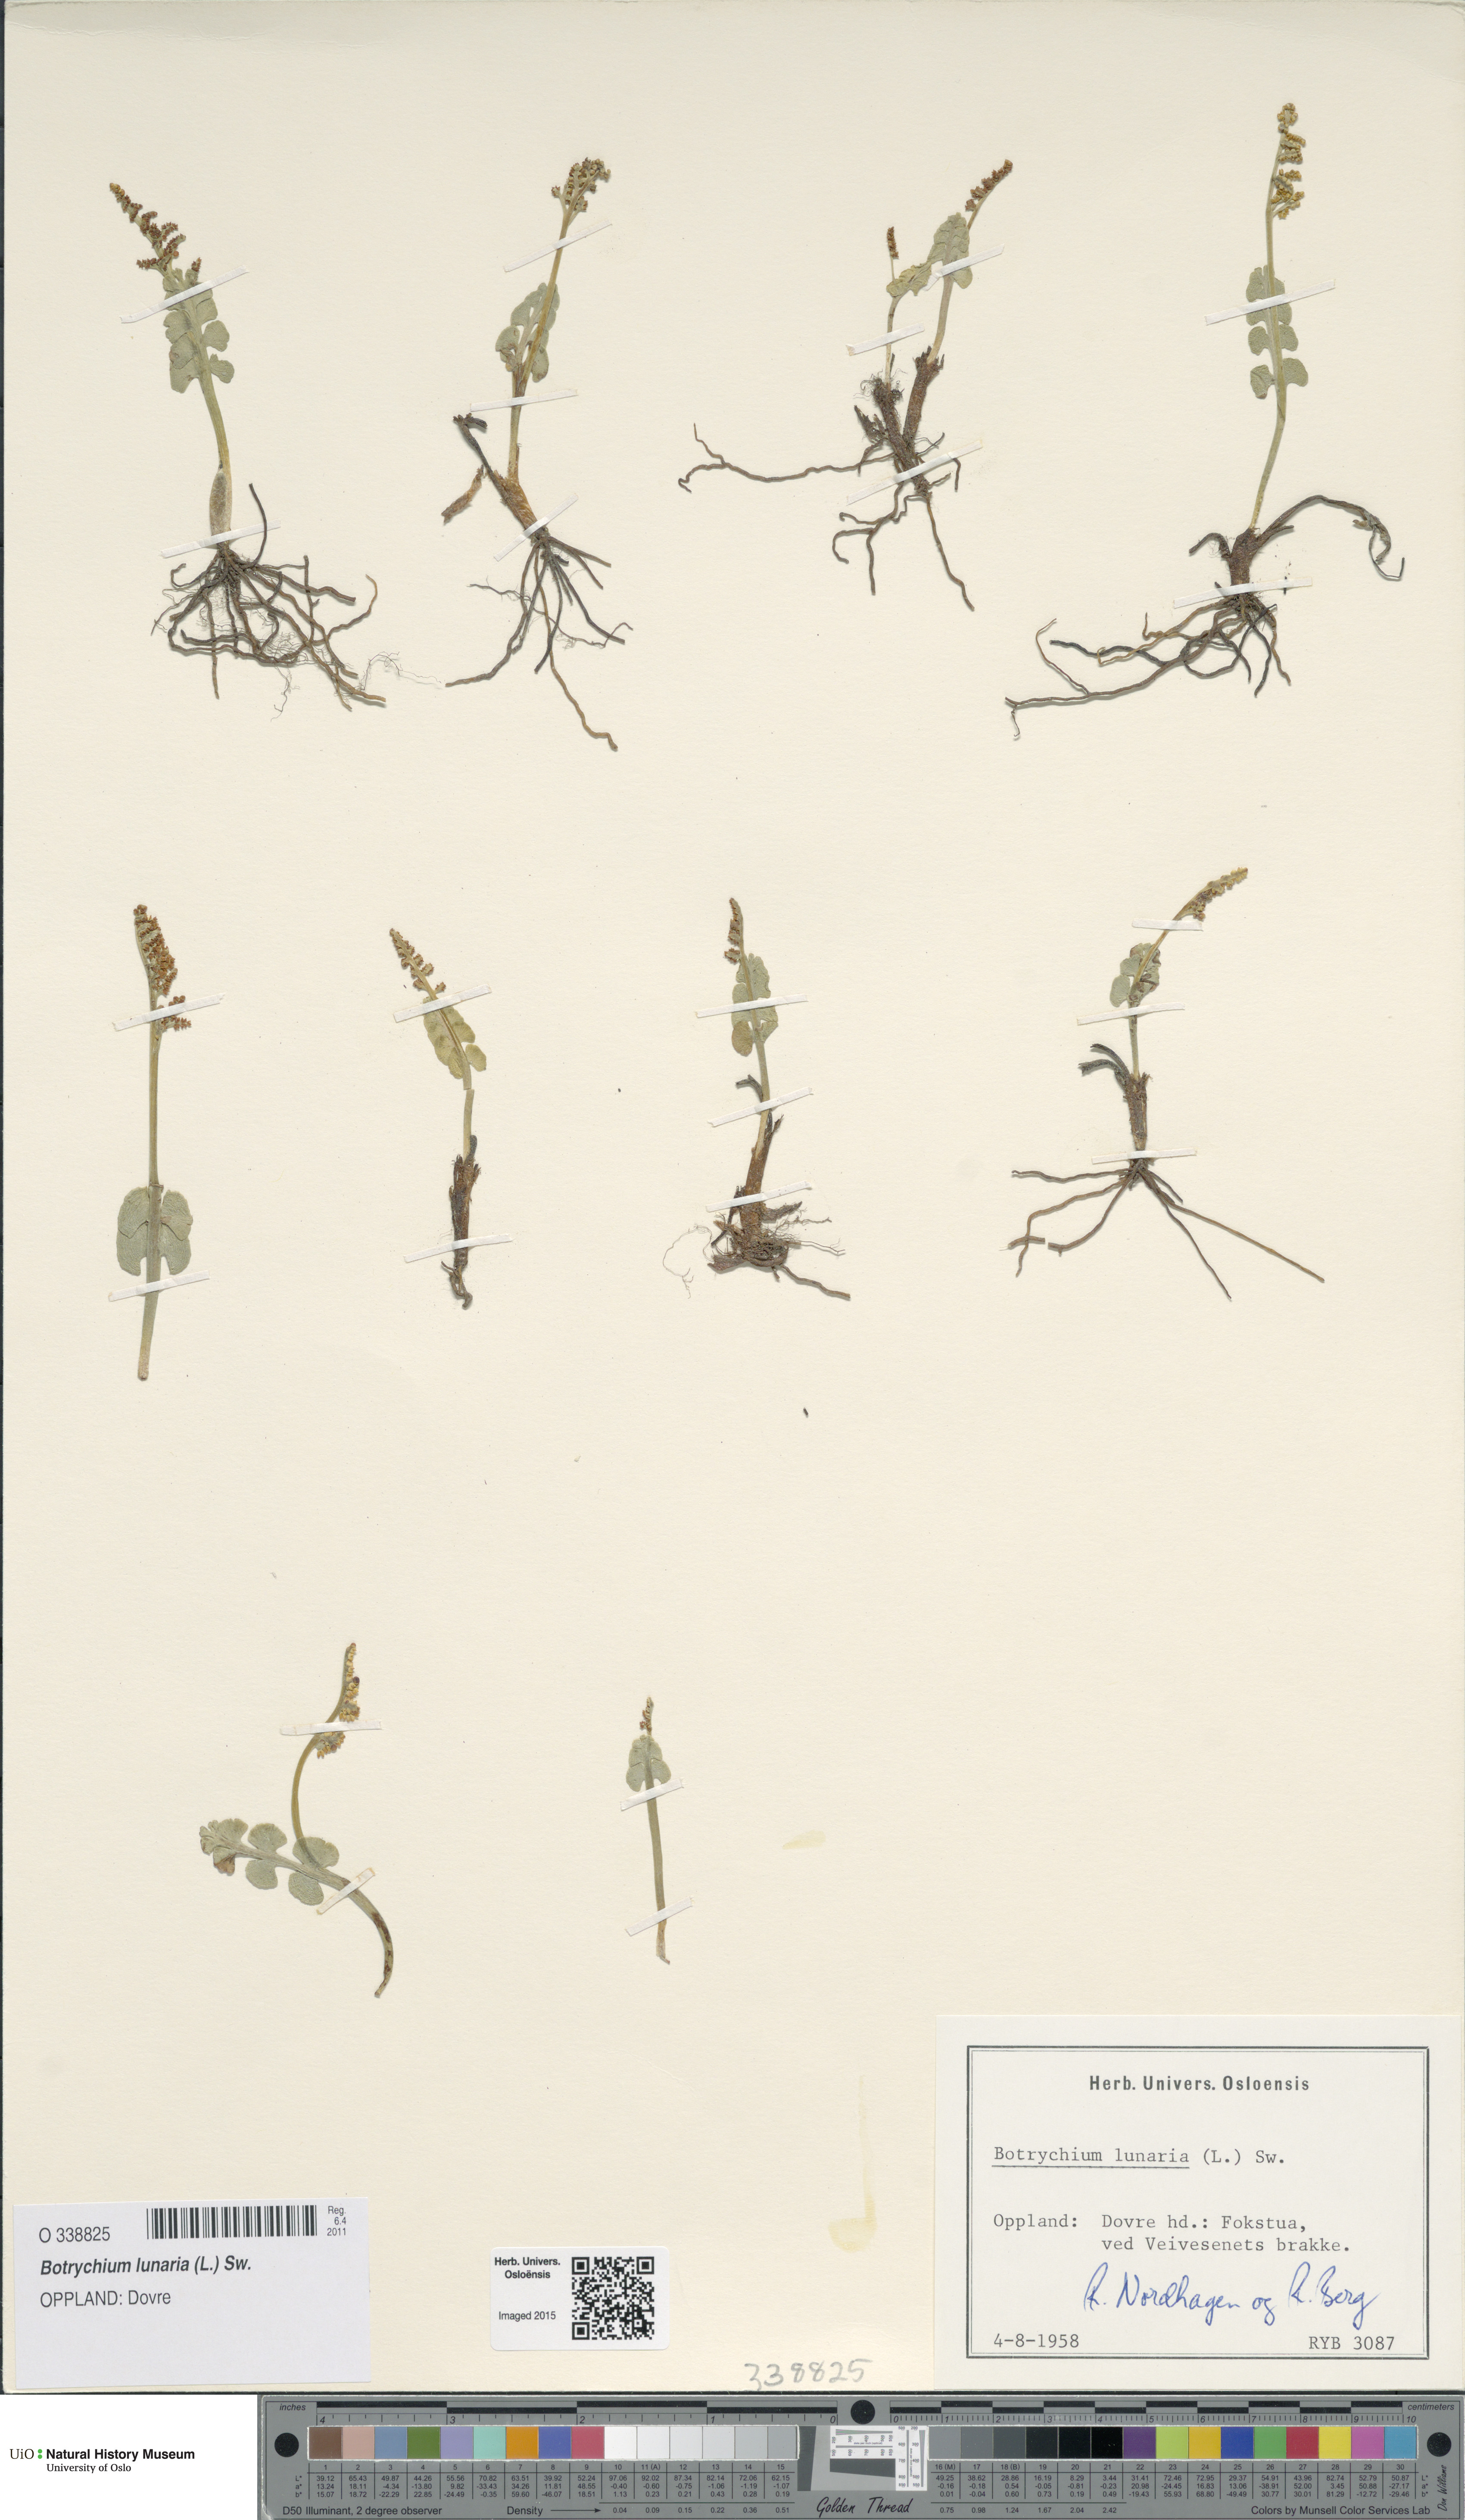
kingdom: Plantae
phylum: Tracheophyta
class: Polypodiopsida
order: Ophioglossales
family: Ophioglossaceae
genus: Botrychium
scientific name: Botrychium lunaria
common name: Moonwort
